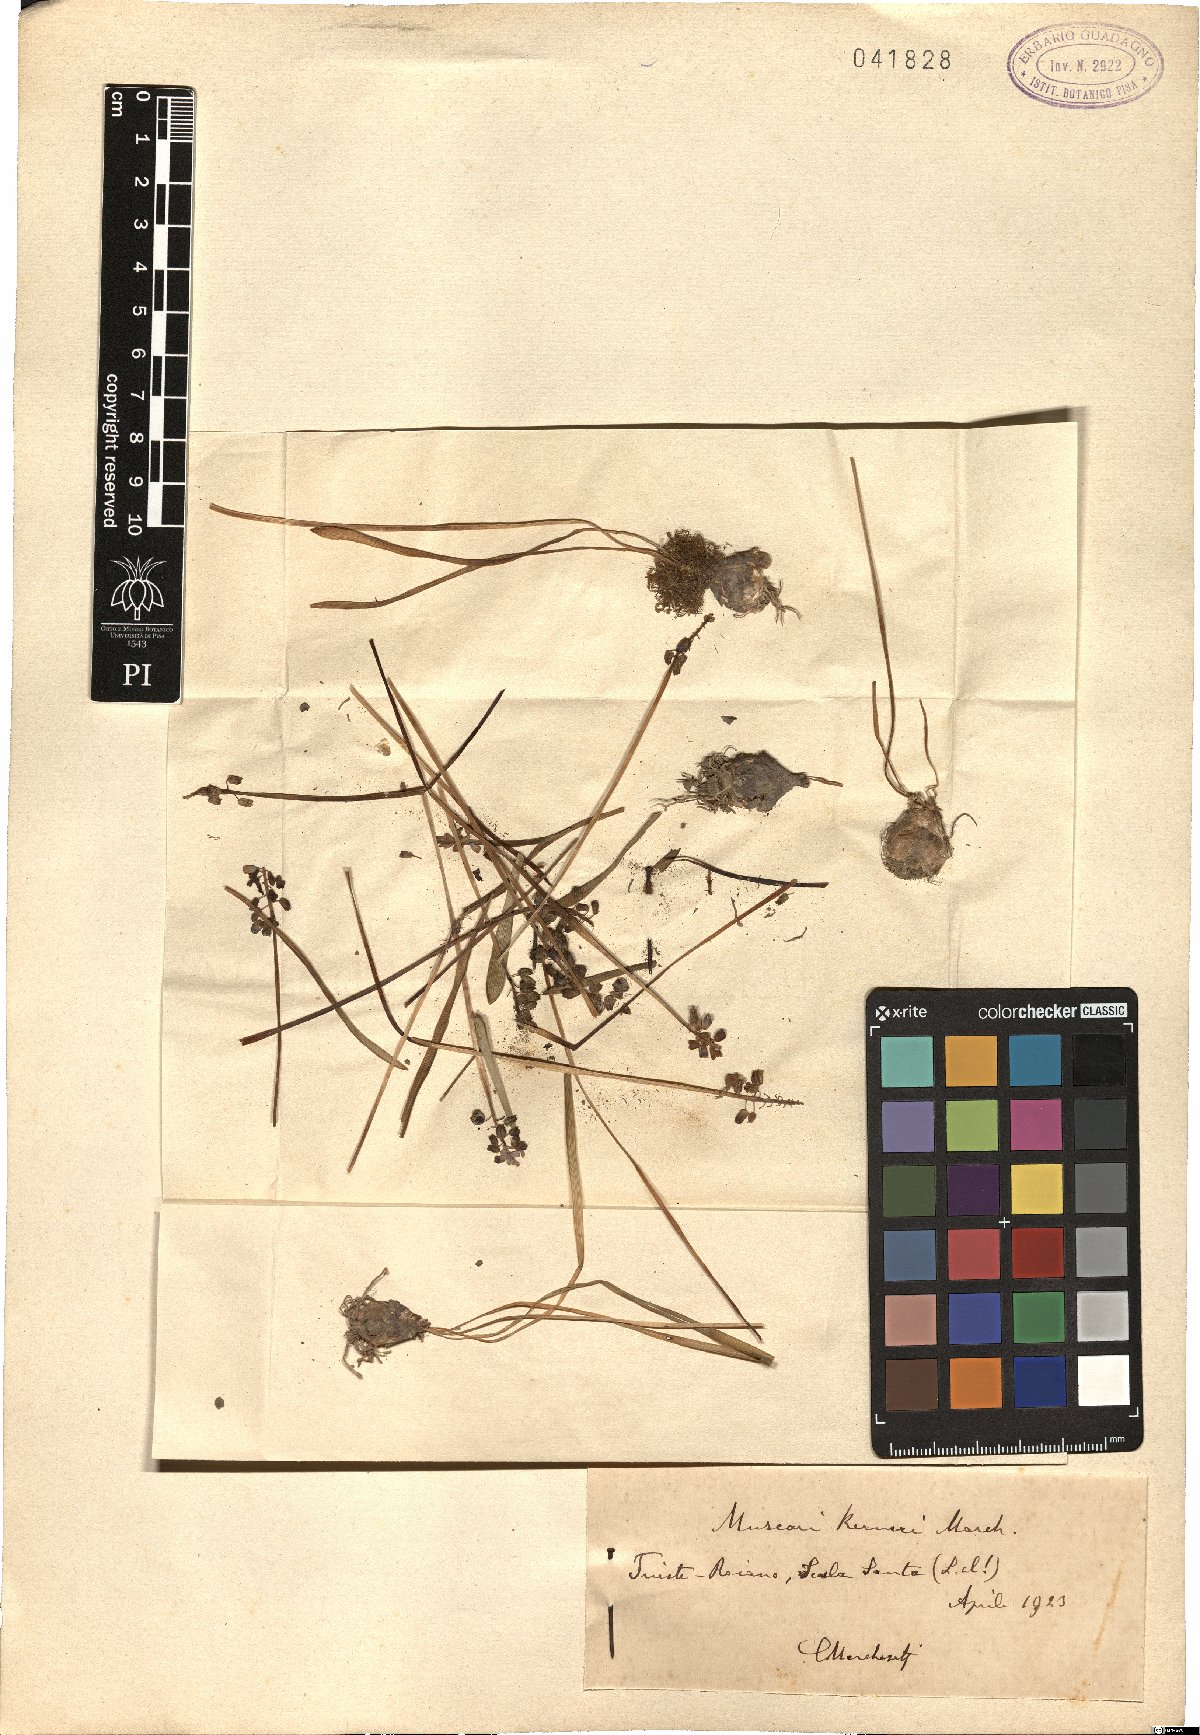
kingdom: Plantae
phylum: Tracheophyta
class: Liliopsida
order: Asparagales
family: Asparagaceae
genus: Muscari
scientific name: Muscari botryoides
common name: Compact grape-hyacinth
